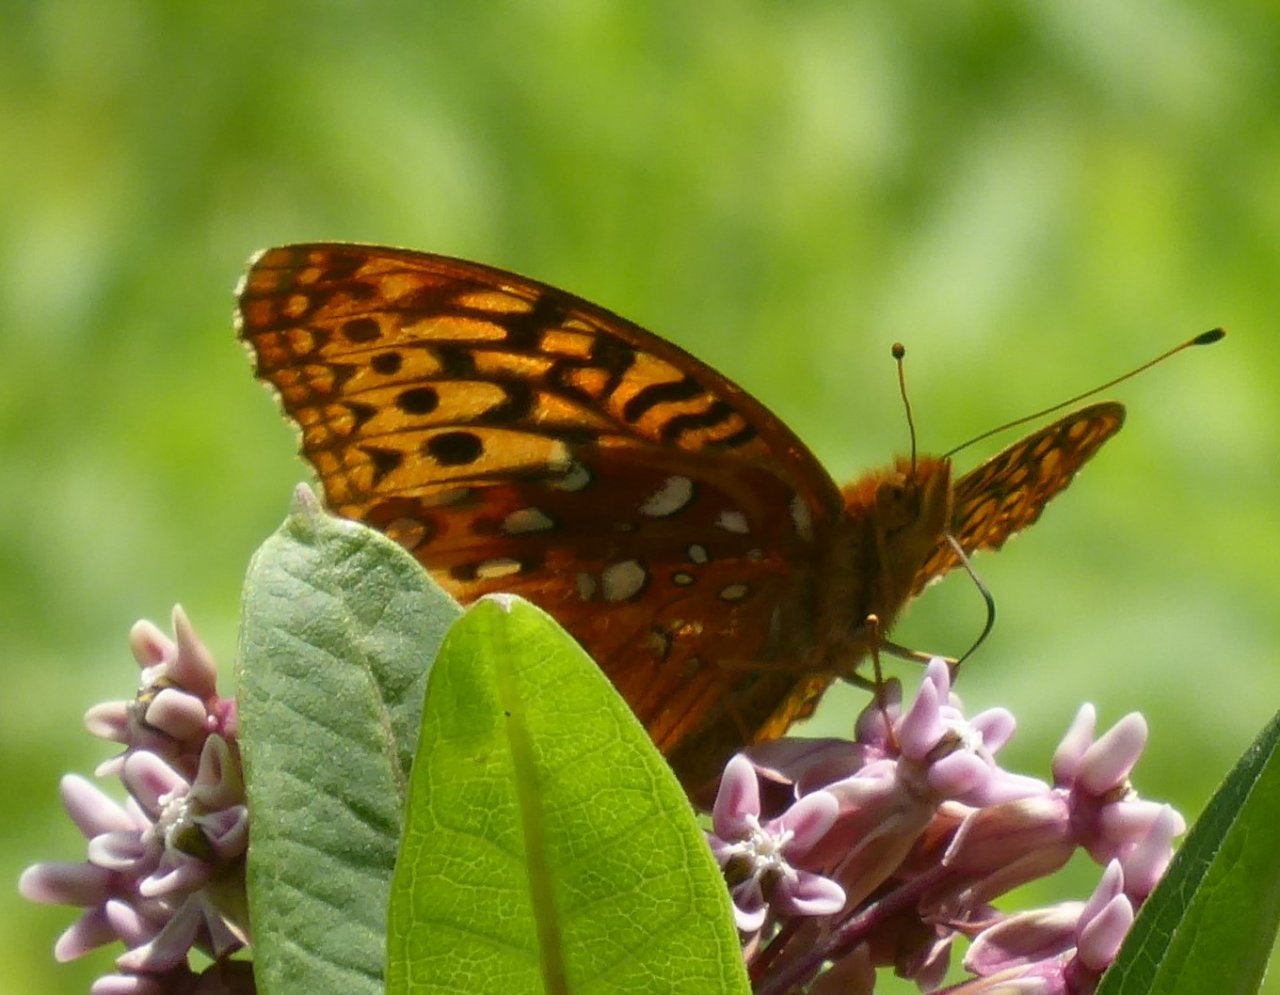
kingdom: Animalia
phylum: Arthropoda
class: Insecta
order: Lepidoptera
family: Nymphalidae
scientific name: Nymphalidae
